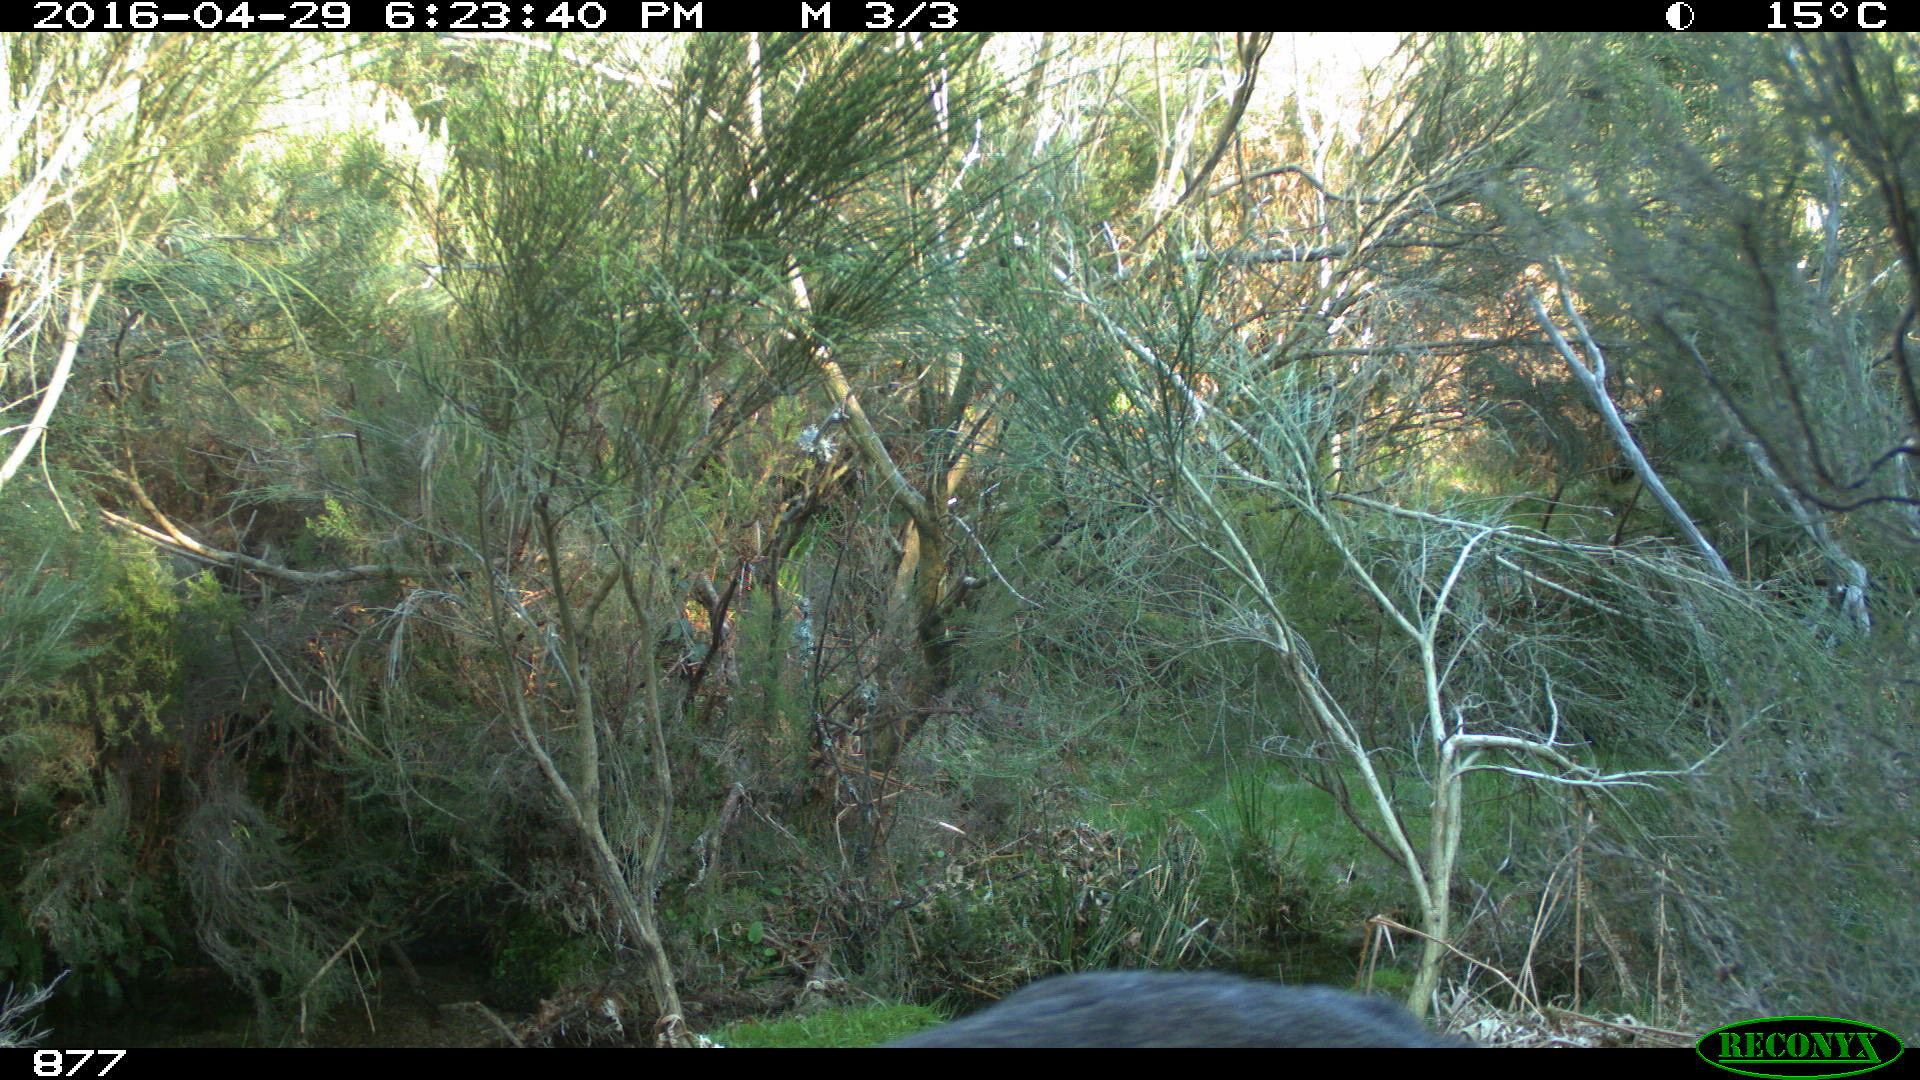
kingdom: Animalia
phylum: Chordata
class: Mammalia
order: Artiodactyla
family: Cervidae
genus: Capreolus
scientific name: Capreolus capreolus
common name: Western roe deer
